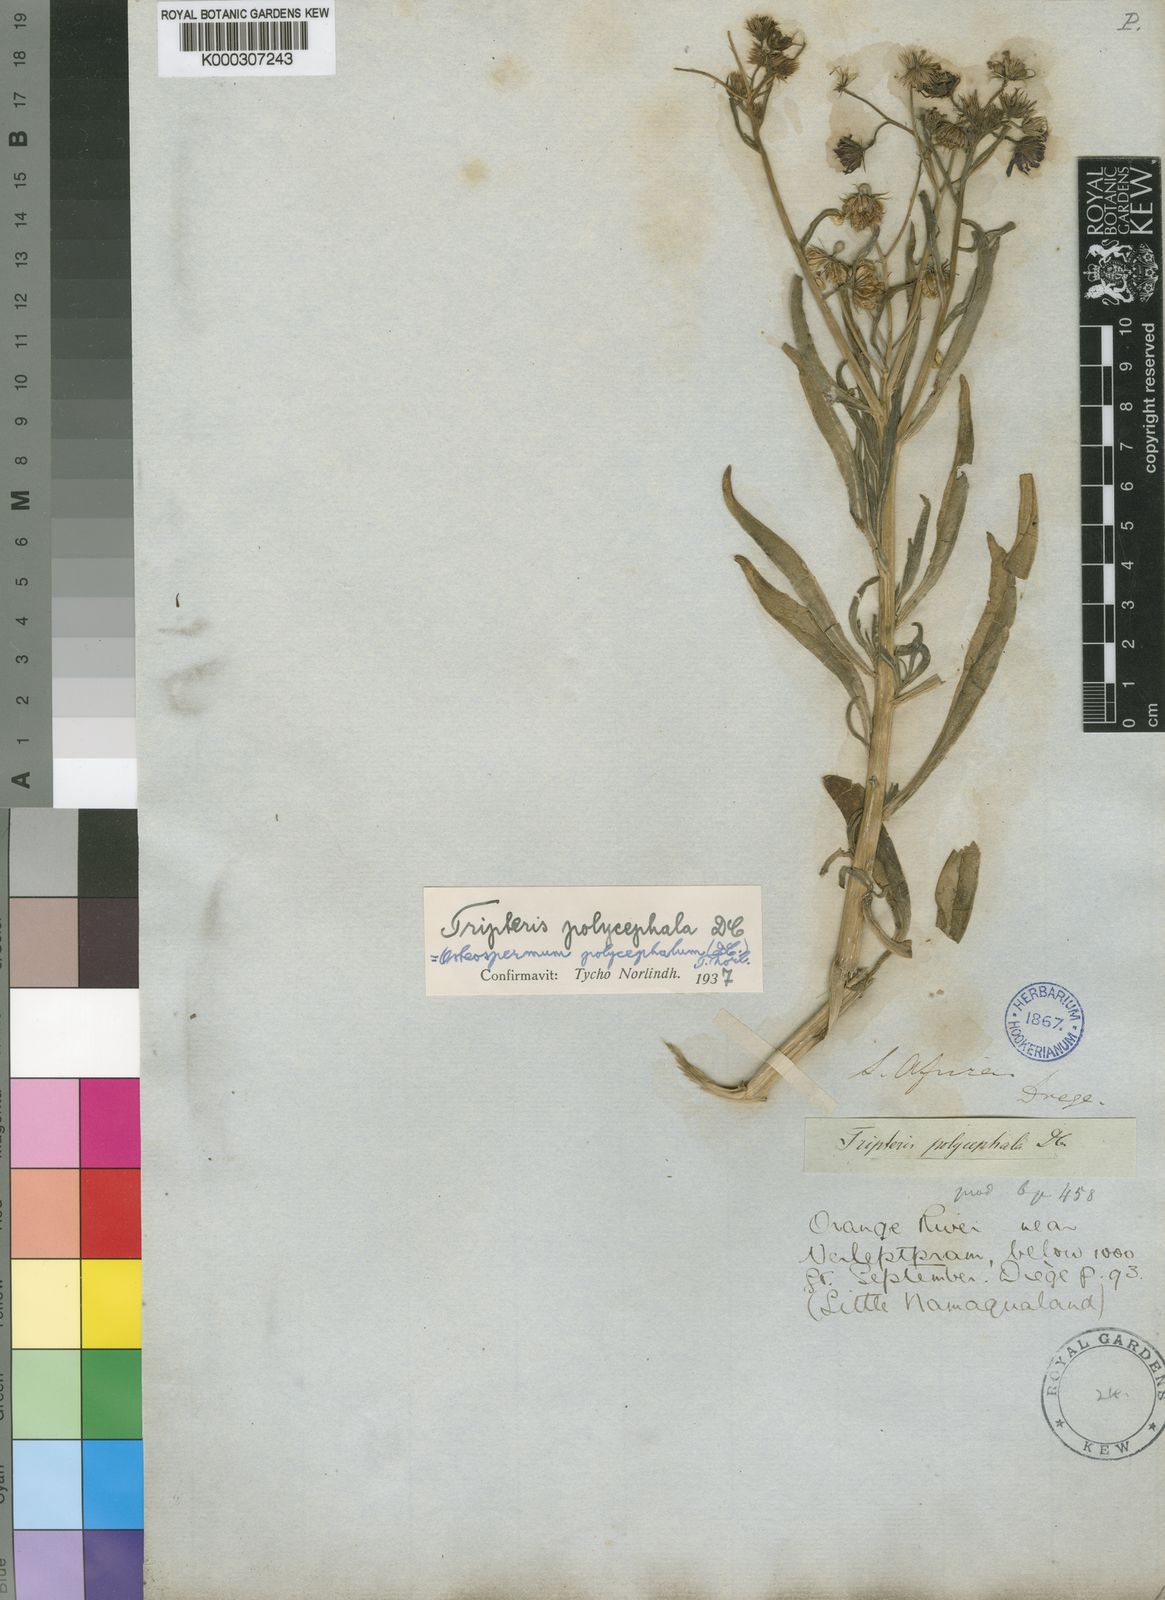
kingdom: Plantae
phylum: Tracheophyta
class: Magnoliopsida
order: Asterales
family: Asteraceae
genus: Osteospermum
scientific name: Osteospermum polycephalum
